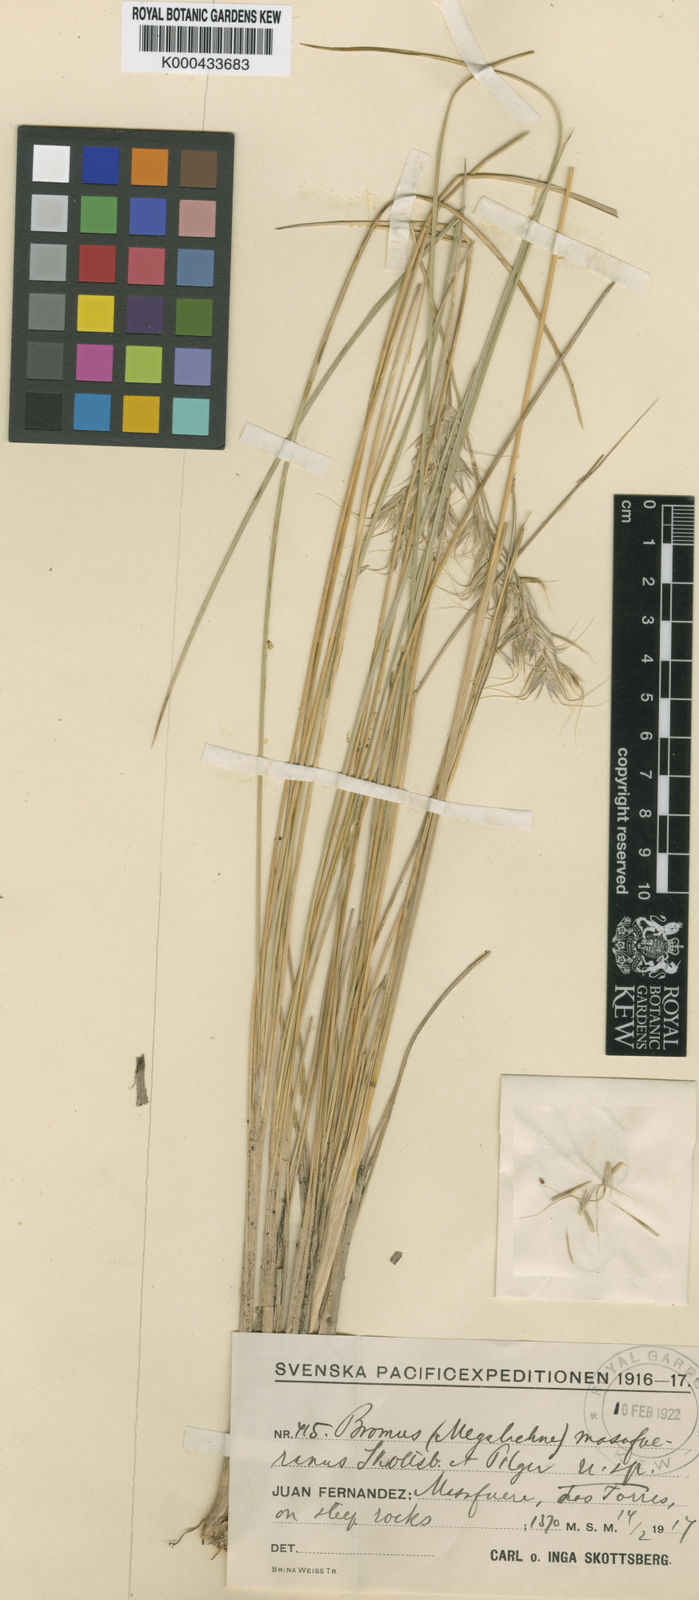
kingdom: Plantae
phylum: Tracheophyta
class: Liliopsida
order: Poales
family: Poaceae
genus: Festuca
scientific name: Festuca masafuerana
